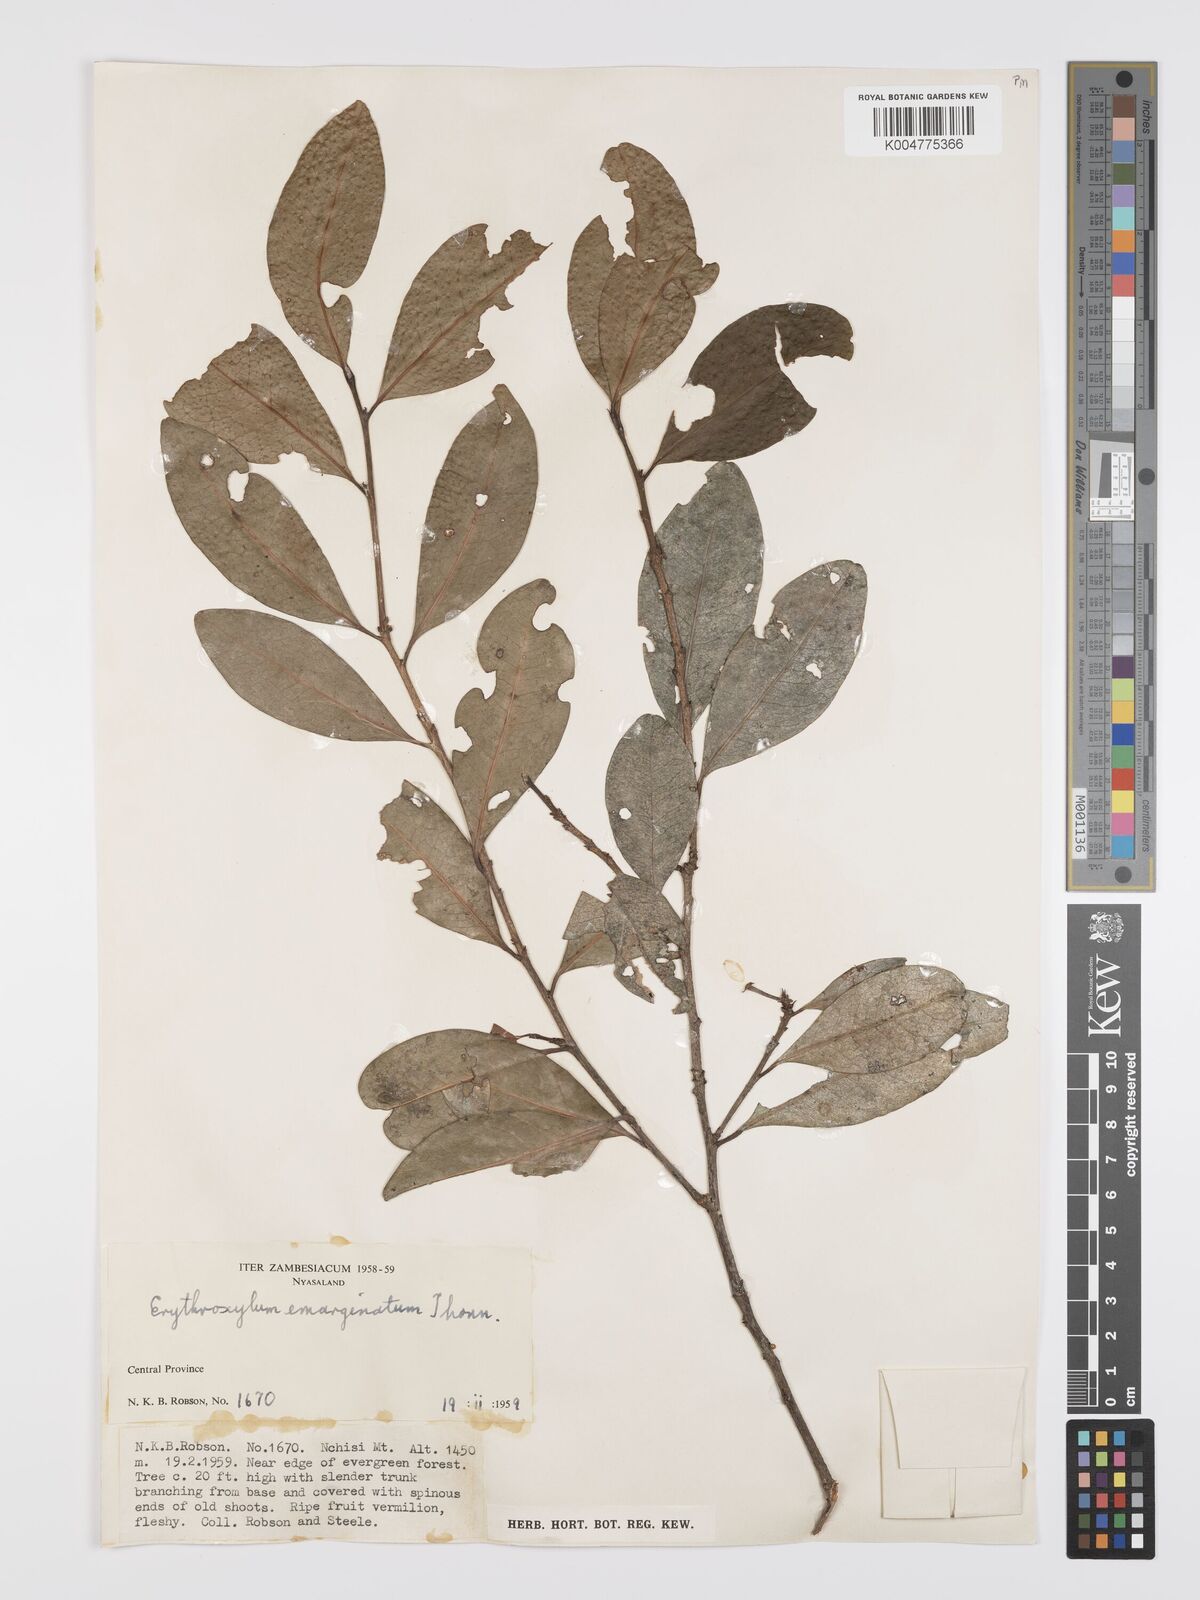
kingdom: Plantae
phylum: Tracheophyta
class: Magnoliopsida
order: Malpighiales
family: Erythroxylaceae
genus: Erythroxylum
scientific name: Erythroxylum emarginatum
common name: African coca-tree
